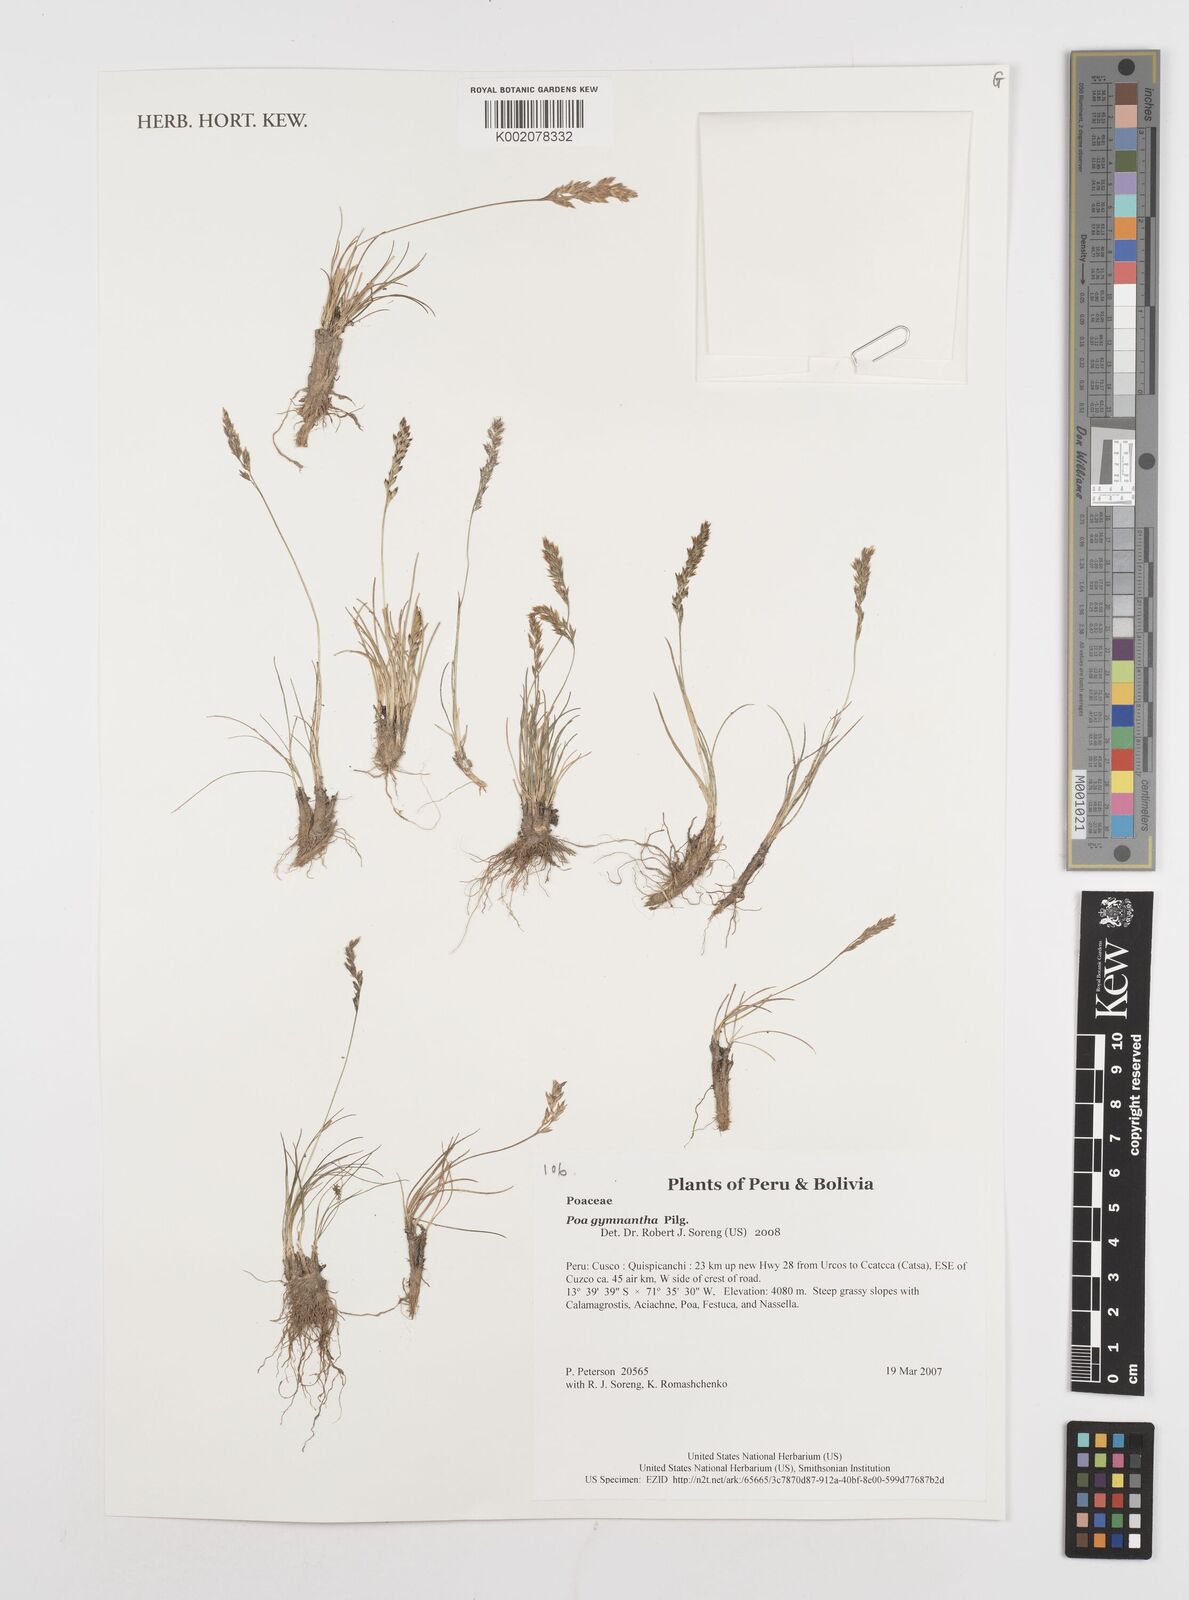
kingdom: Plantae
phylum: Tracheophyta
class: Liliopsida
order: Poales
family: Poaceae
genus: Poa
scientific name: Poa gymnantha
